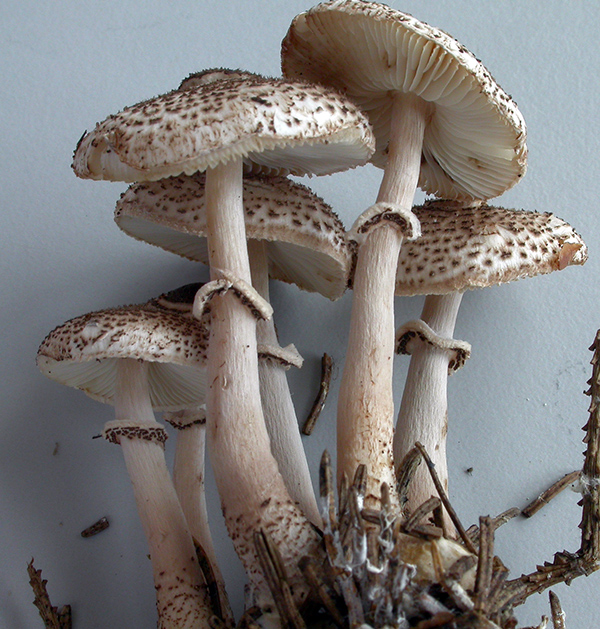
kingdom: Fungi
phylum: Basidiomycota
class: Agaricomycetes
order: Agaricales
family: Agaricaceae
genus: Lepiota
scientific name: Lepiota felina
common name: sortskællet parasolhat
